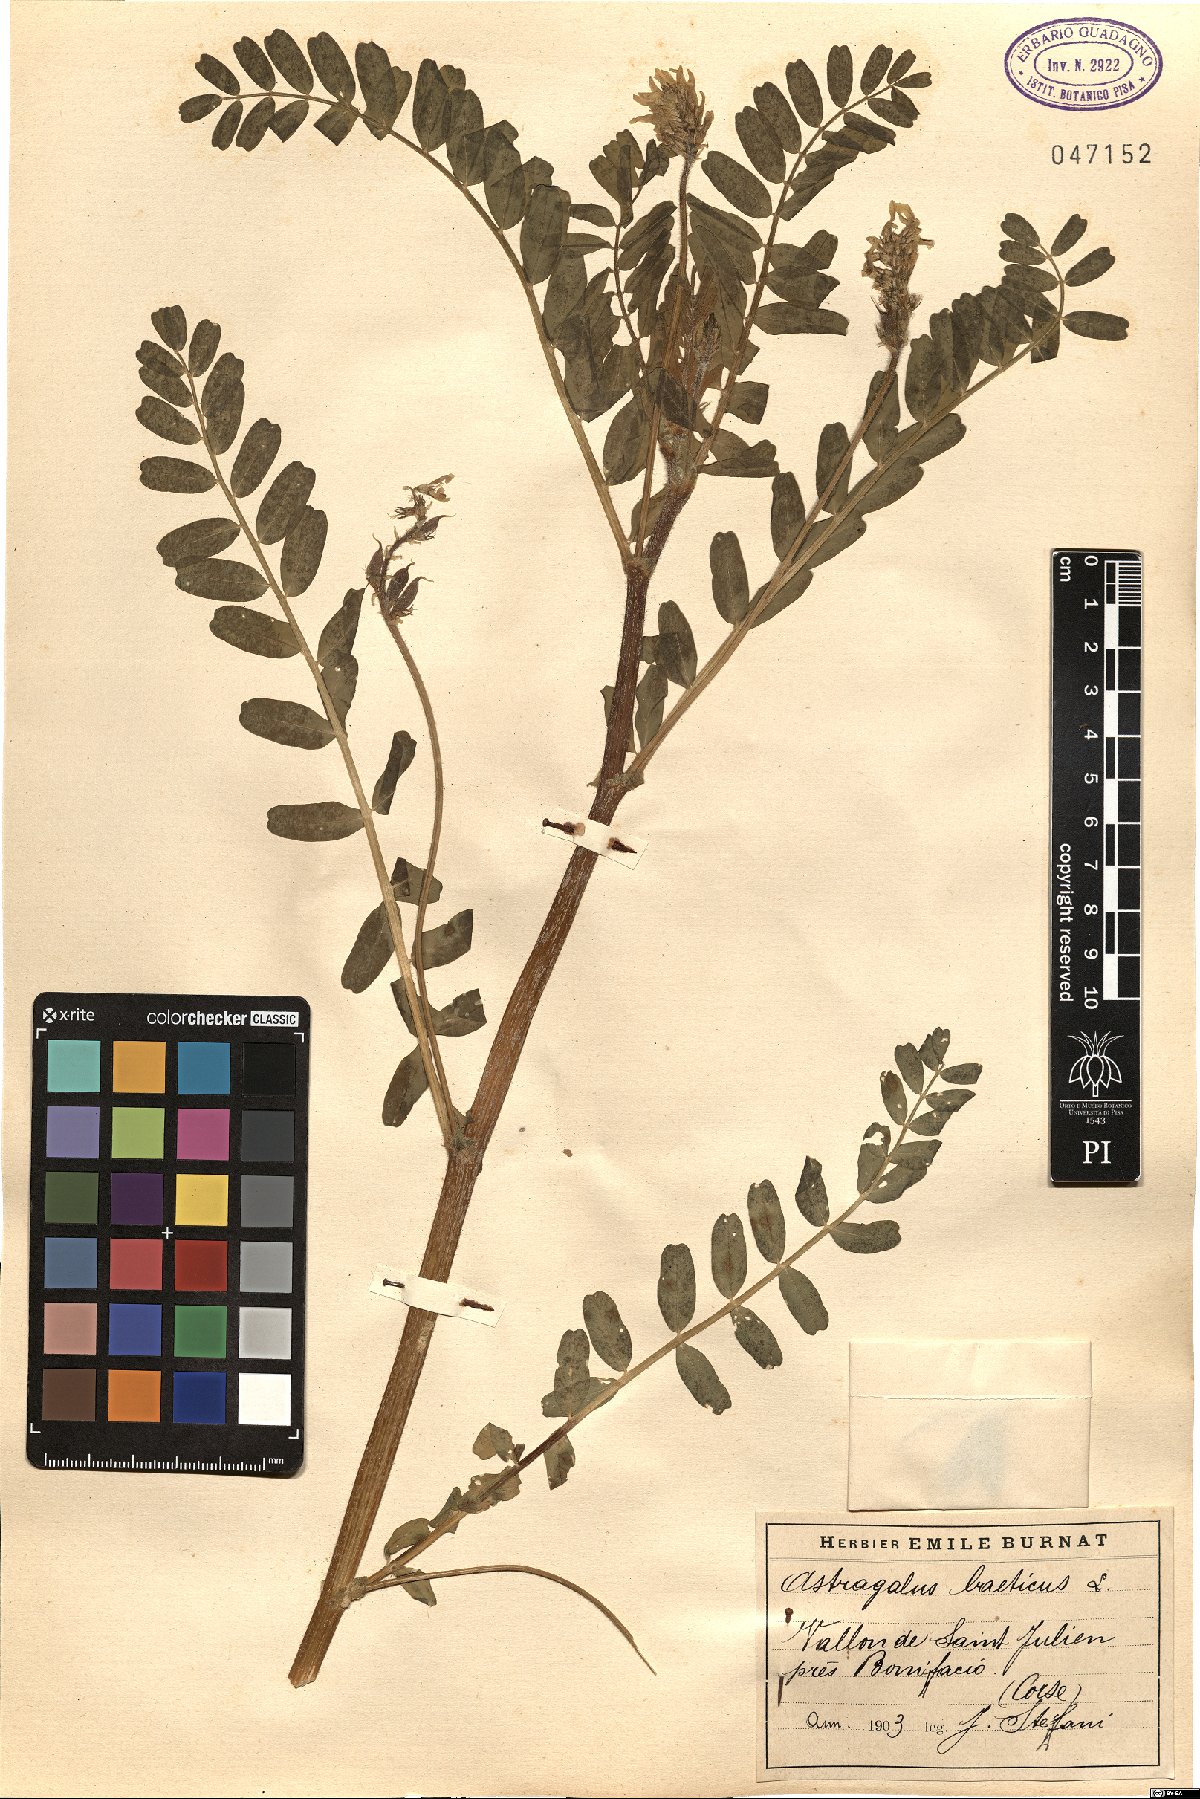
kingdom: Plantae
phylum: Tracheophyta
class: Magnoliopsida
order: Fabales
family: Fabaceae
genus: Astragalus
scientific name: Astragalus boeticus
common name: Milk-vetch
